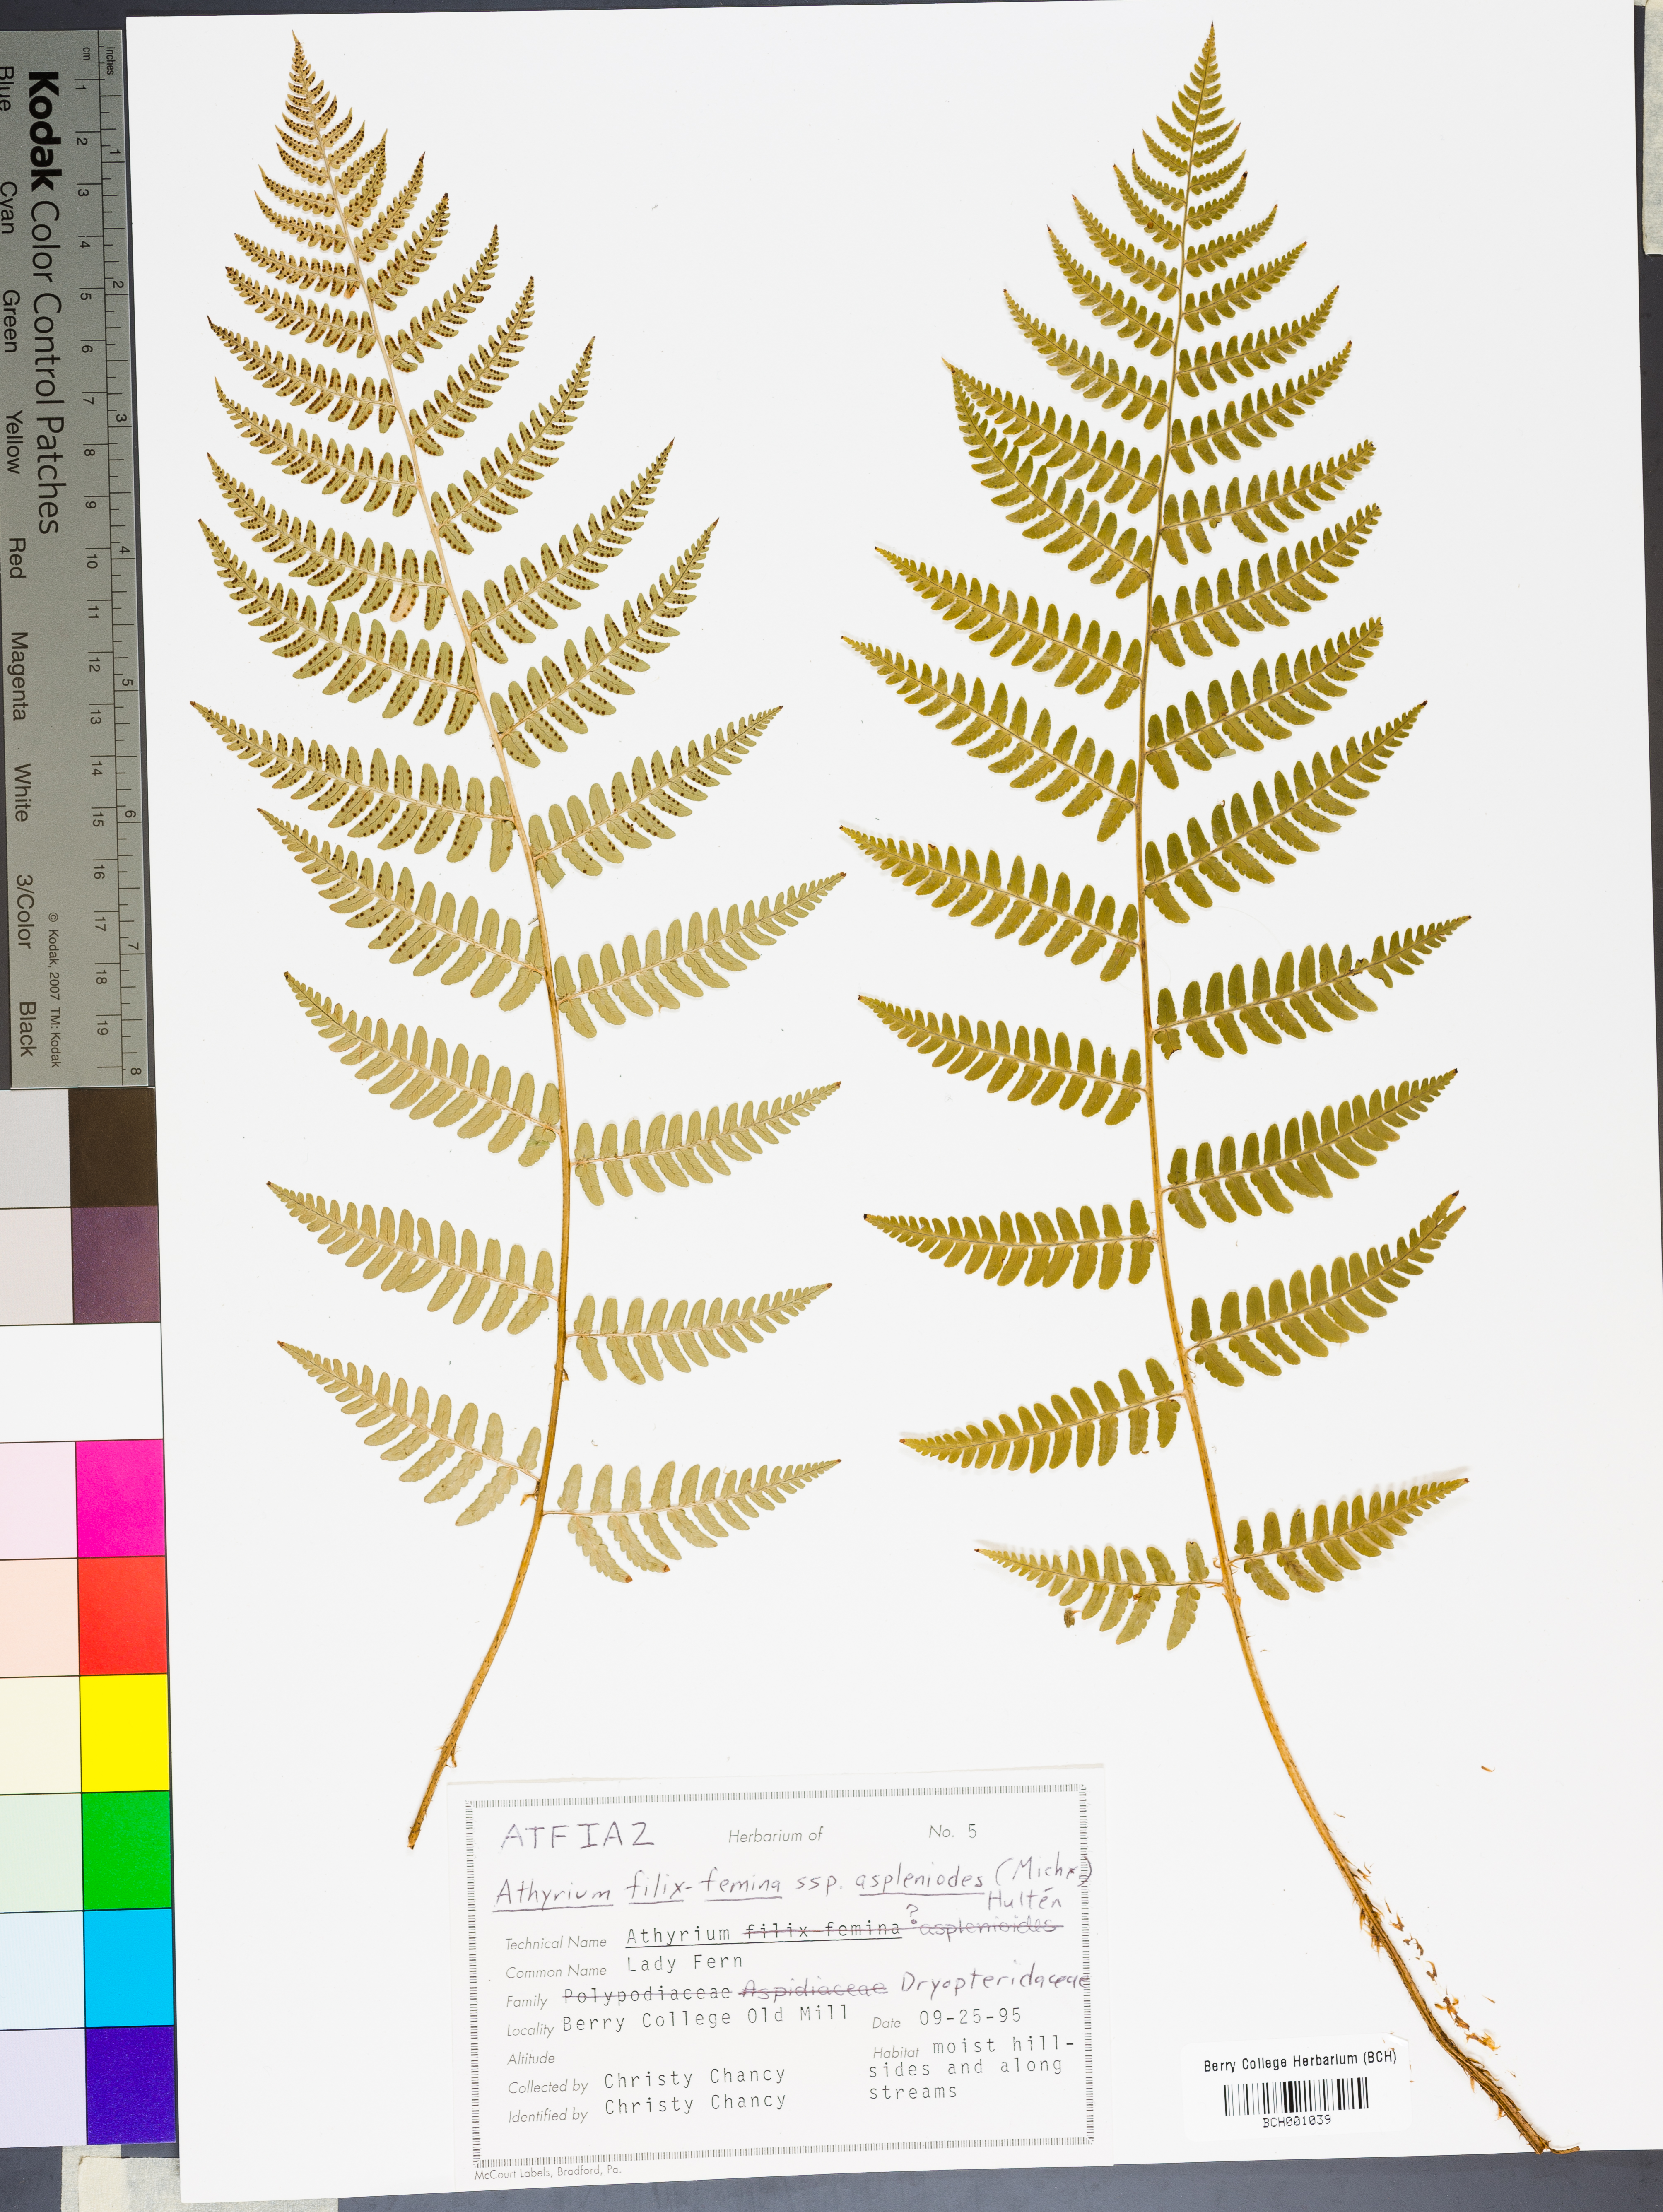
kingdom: Plantae
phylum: Tracheophyta
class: Polypodiopsida
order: Polypodiales
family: Athyriaceae
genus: Athyrium
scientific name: Athyrium asplenioides
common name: Southern lady fern
